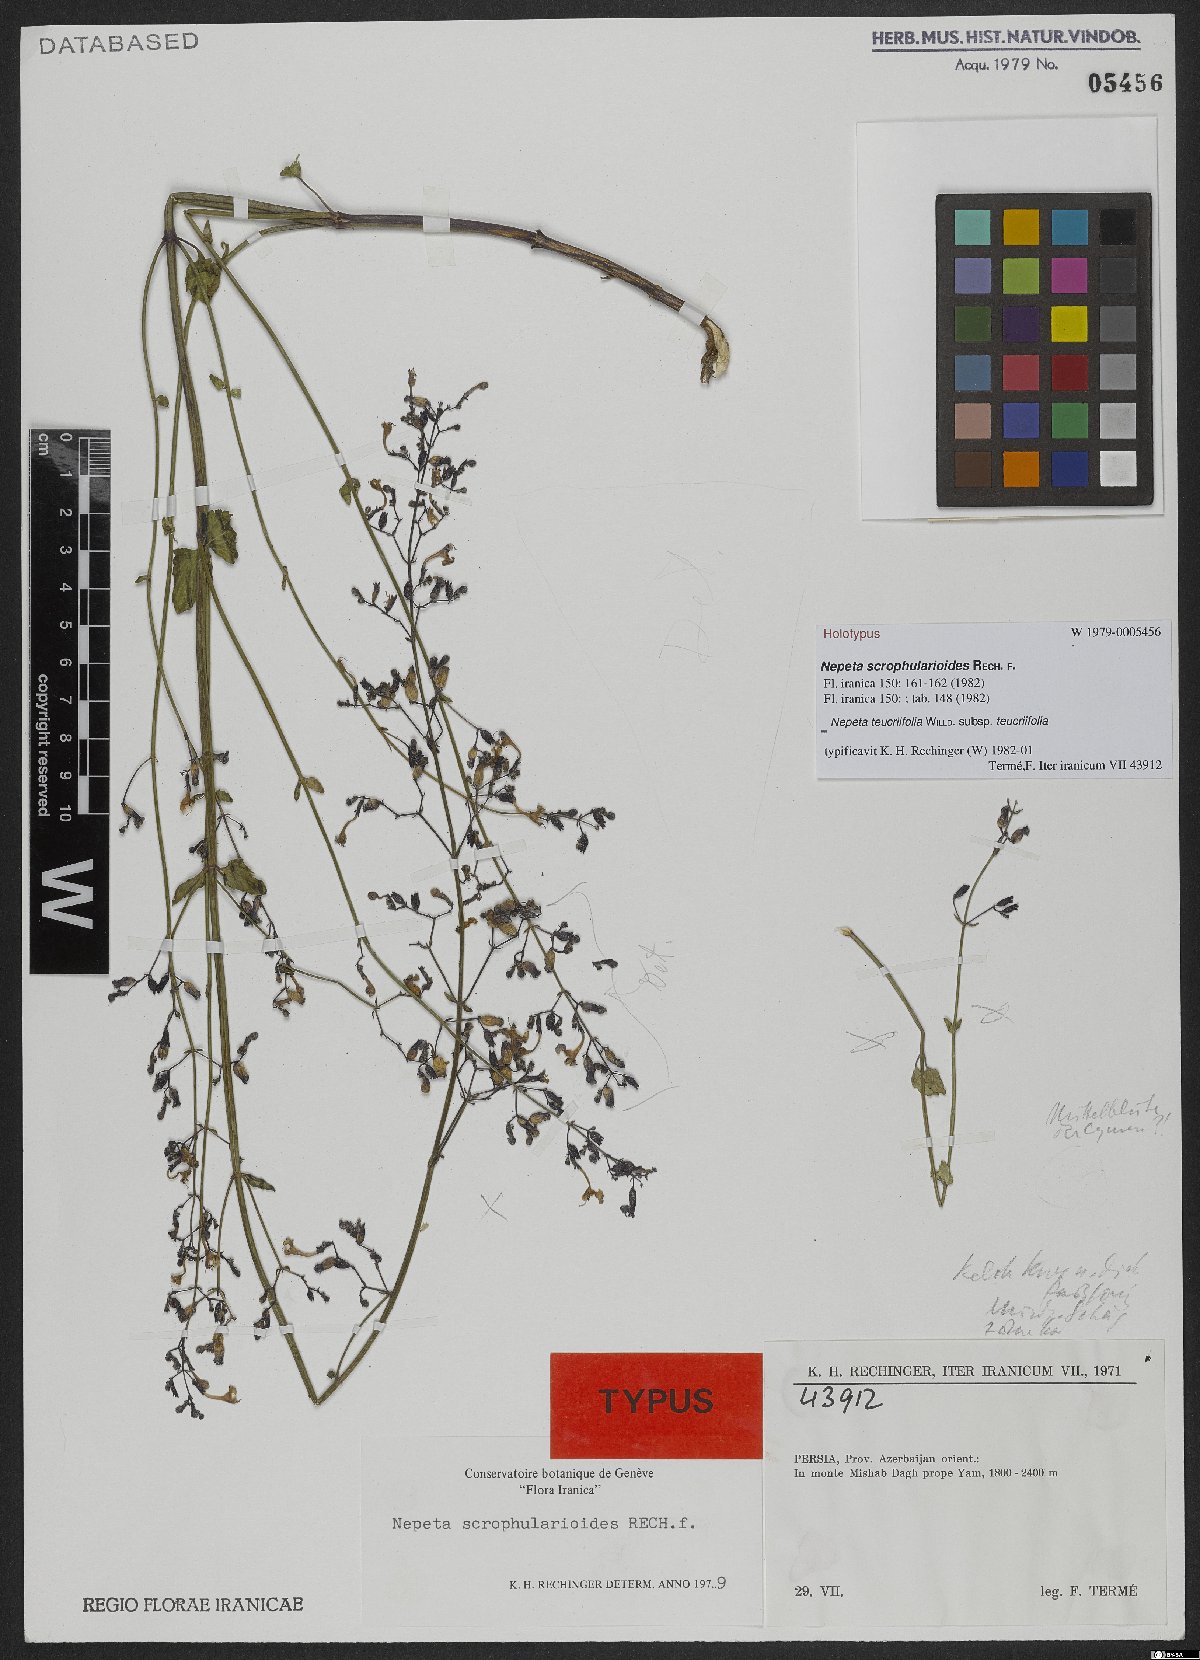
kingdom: Plantae
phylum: Tracheophyta
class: Magnoliopsida
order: Lamiales
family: Lamiaceae
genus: Nepeta
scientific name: Nepeta teucriifolia
